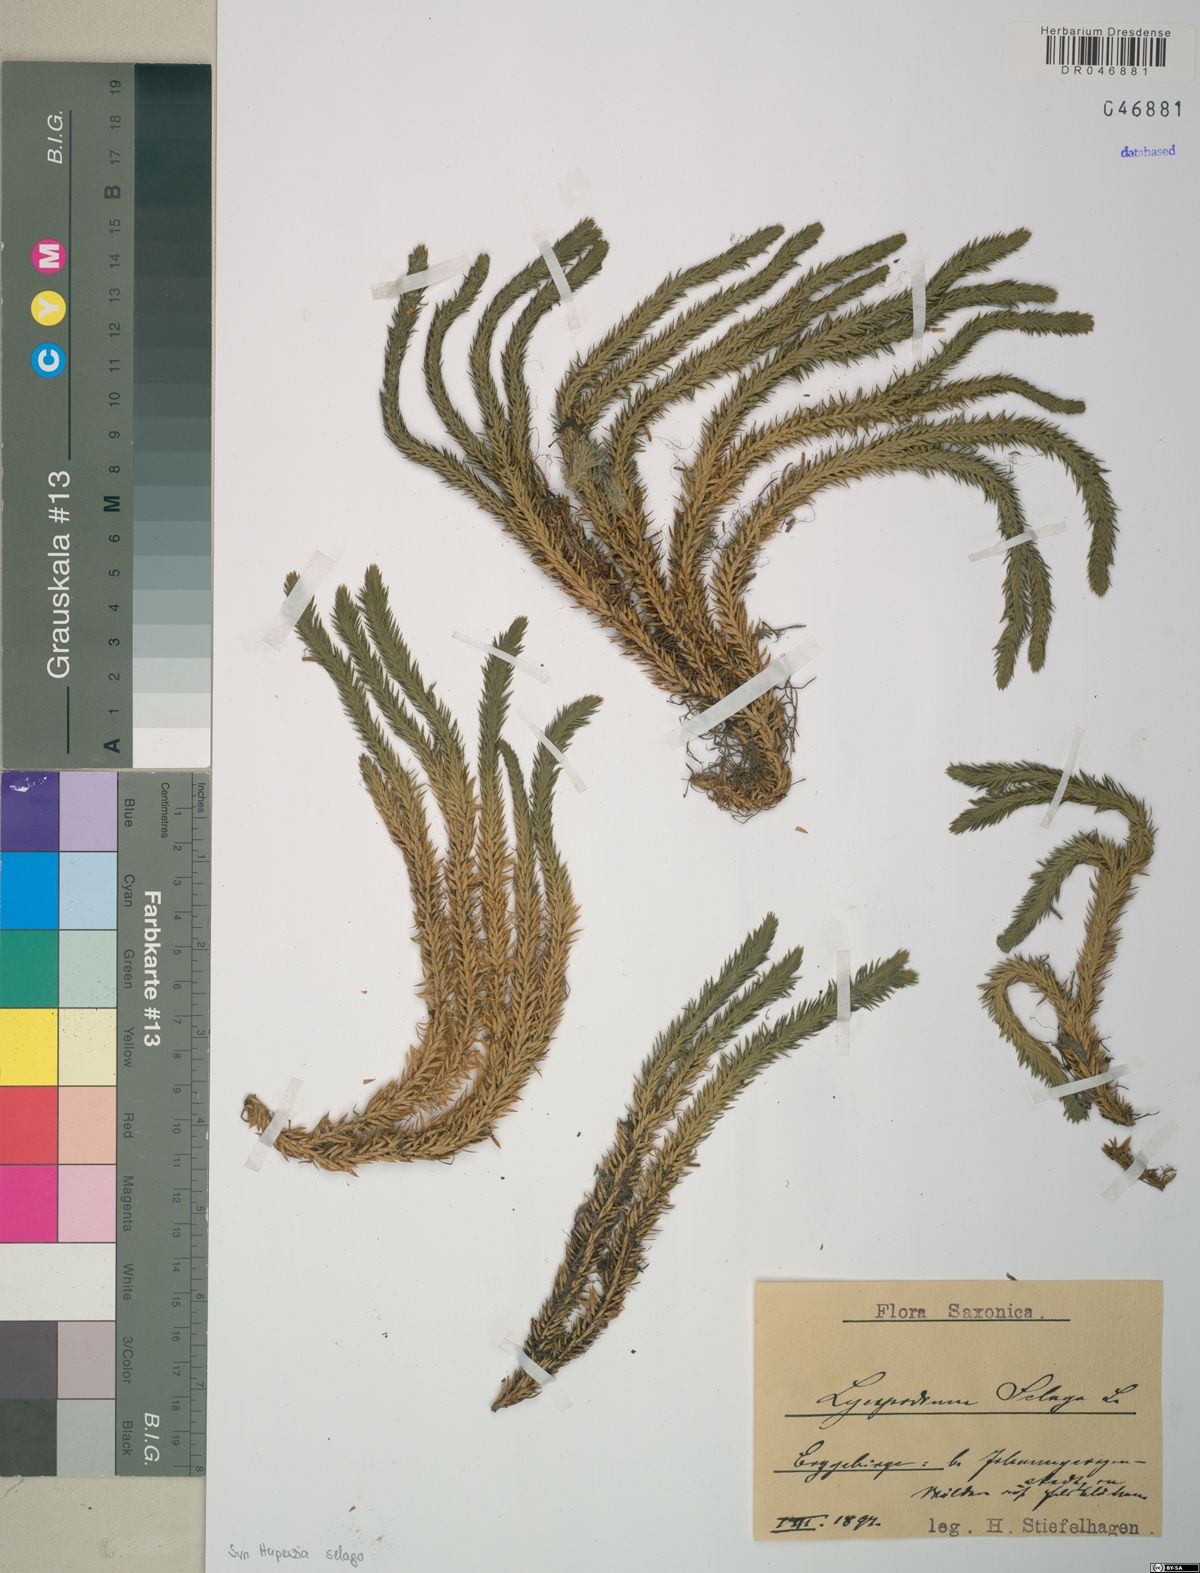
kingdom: Plantae
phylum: Tracheophyta
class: Lycopodiopsida
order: Lycopodiales
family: Lycopodiaceae
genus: Huperzia
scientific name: Huperzia selago
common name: Northern firmoss
